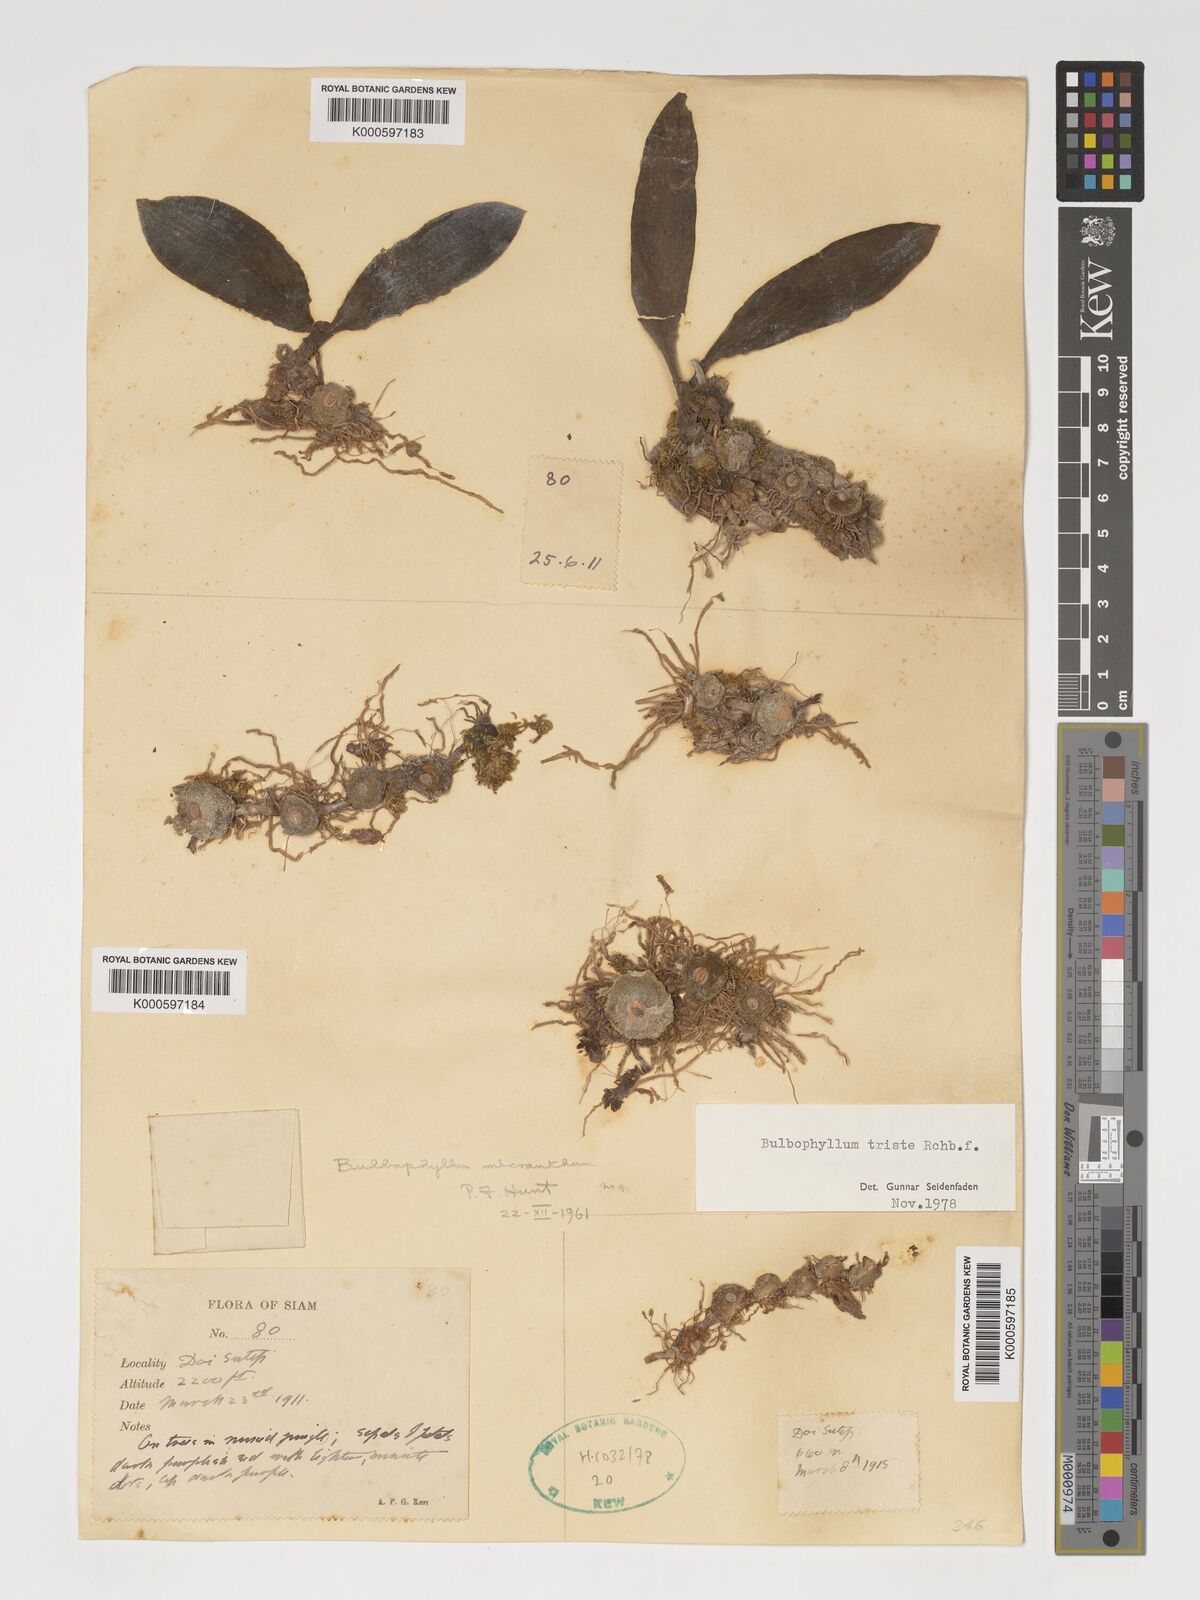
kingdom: Plantae
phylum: Tracheophyta
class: Liliopsida
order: Asparagales
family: Orchidaceae
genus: Bulbophyllum
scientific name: Bulbophyllum triste
